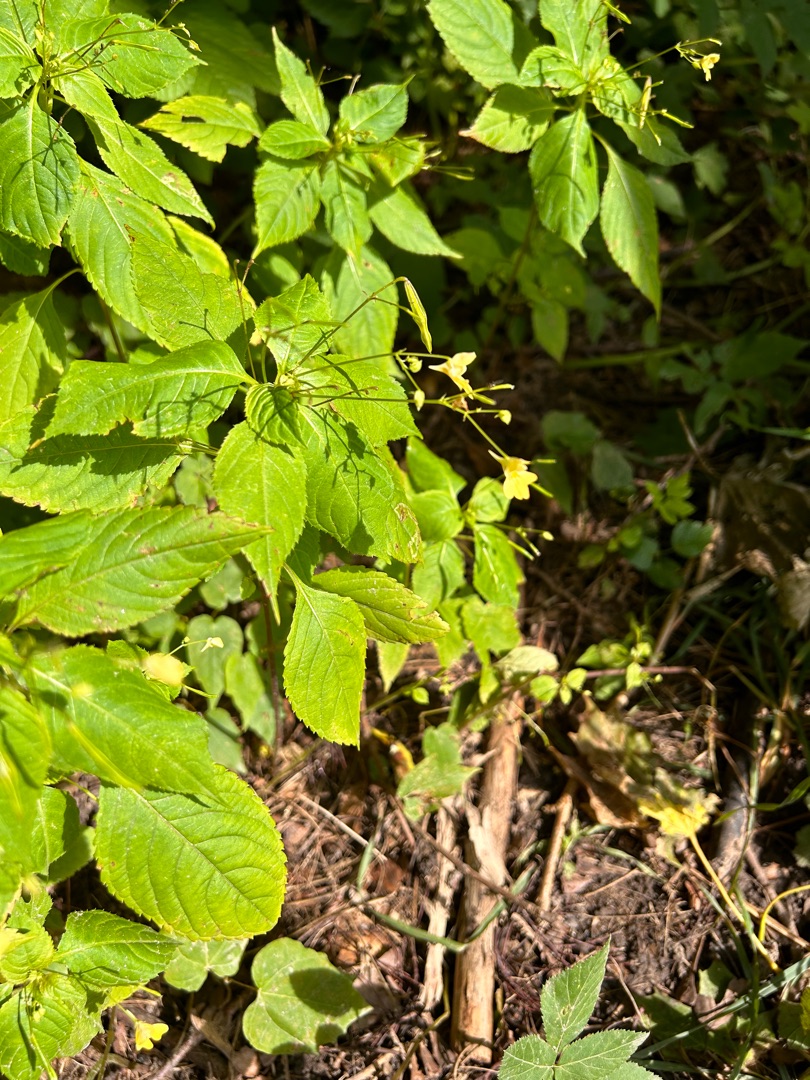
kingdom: Plantae
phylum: Tracheophyta
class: Magnoliopsida
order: Ericales
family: Balsaminaceae
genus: Impatiens
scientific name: Impatiens parviflora
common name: Småblomstret balsamin
